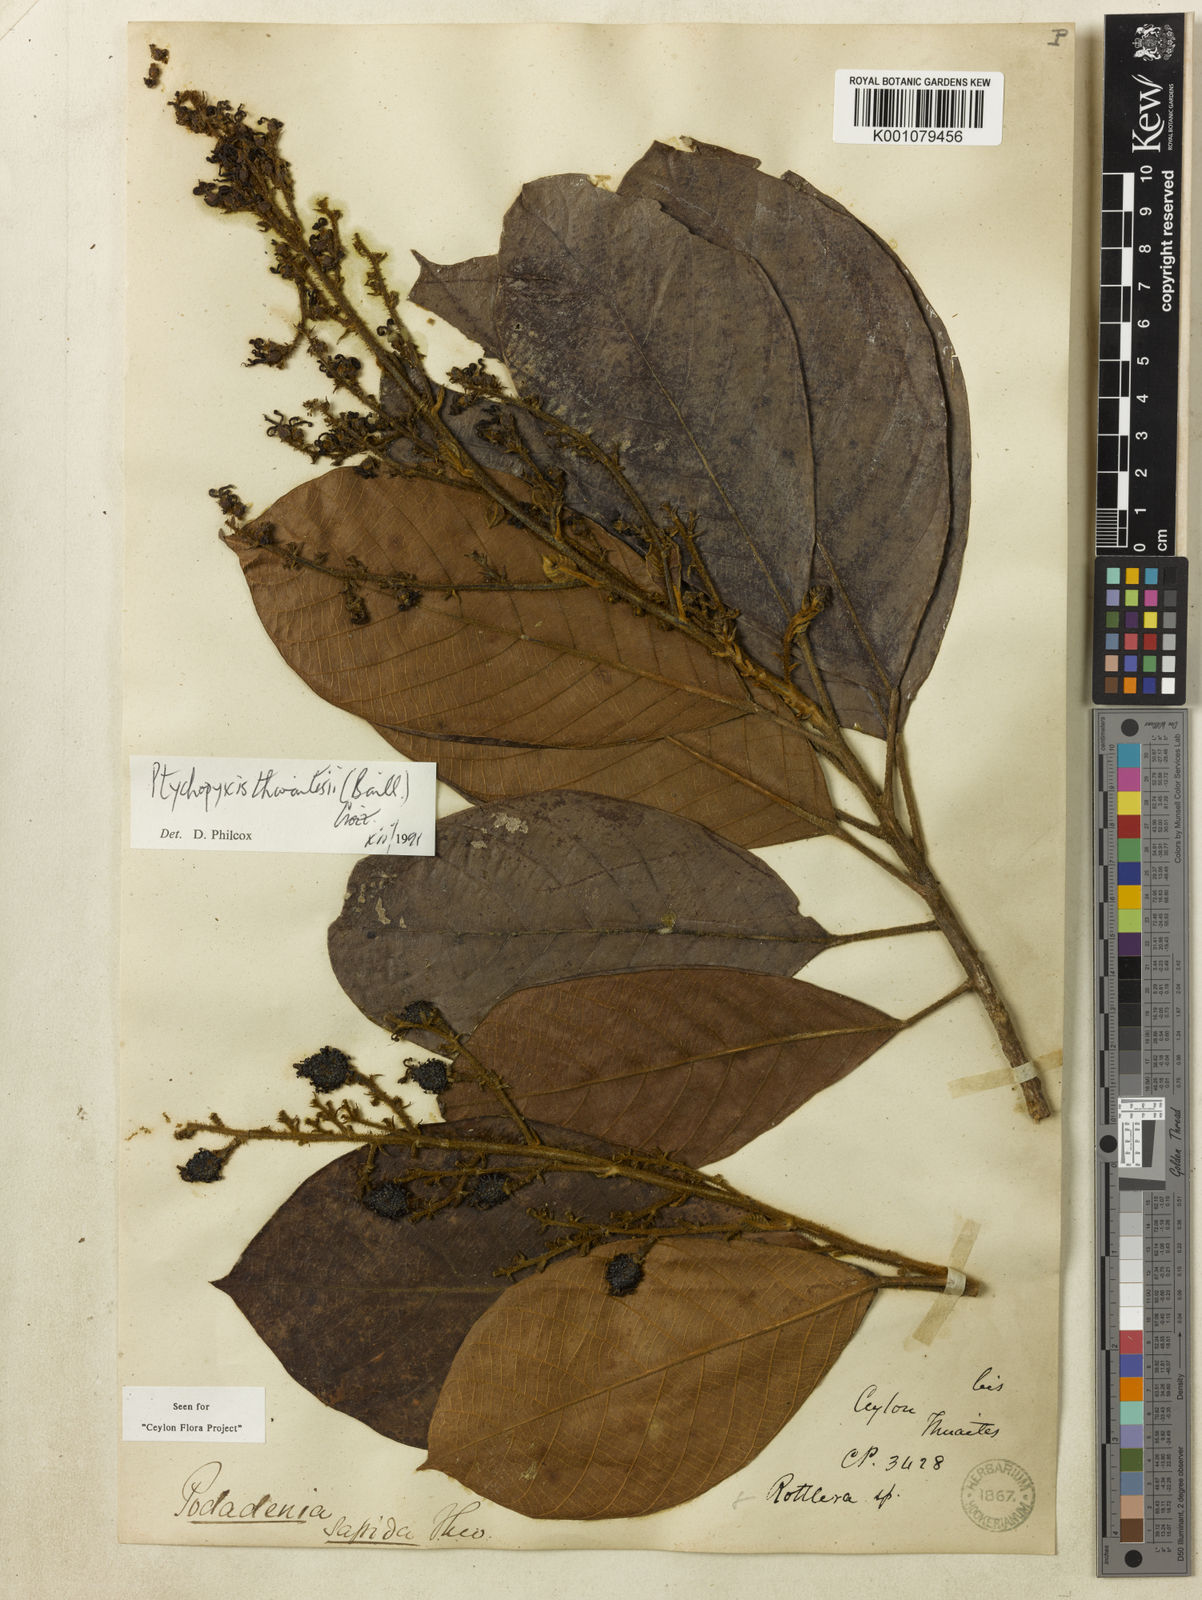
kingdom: Plantae
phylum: Tracheophyta
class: Magnoliopsida
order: Malpighiales
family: Euphorbiaceae
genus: Podadenia
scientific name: Podadenia sapida
